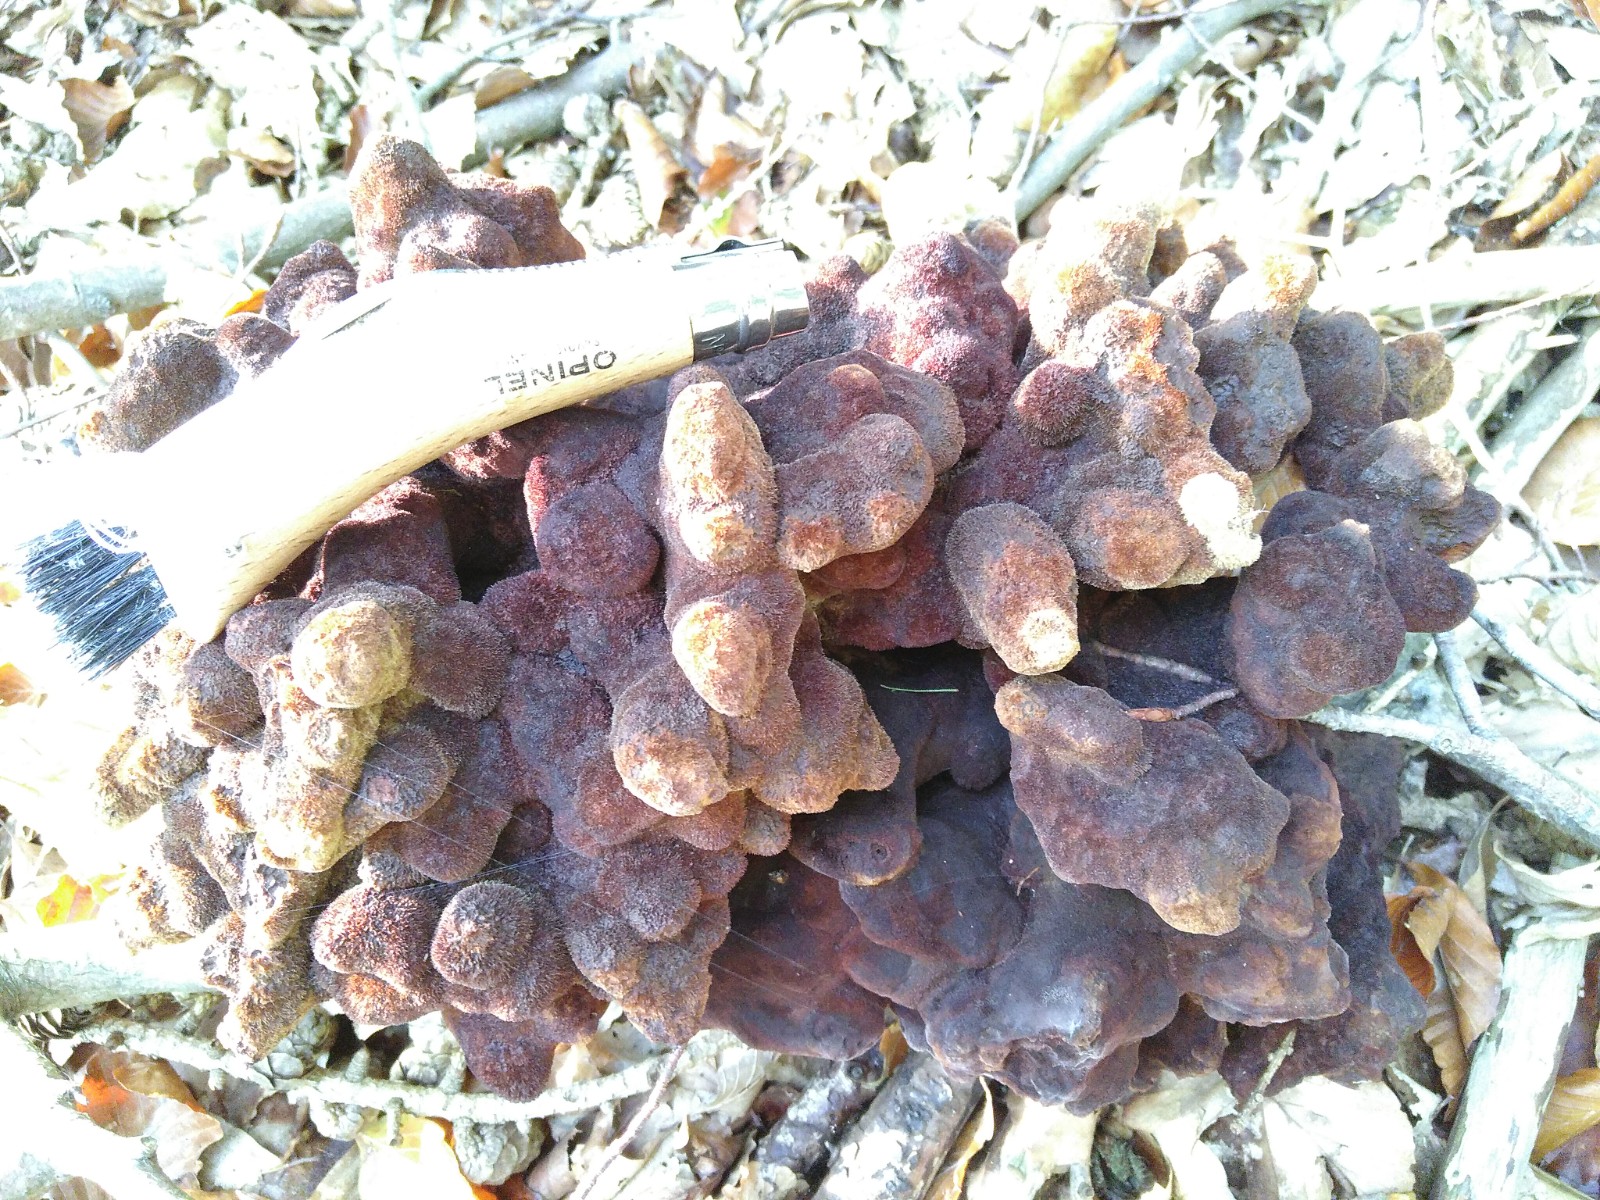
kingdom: Fungi
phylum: Basidiomycota
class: Agaricomycetes
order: Polyporales
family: Laetiporaceae
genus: Phaeolus
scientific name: Phaeolus schweinitzii
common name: brunporesvamp
